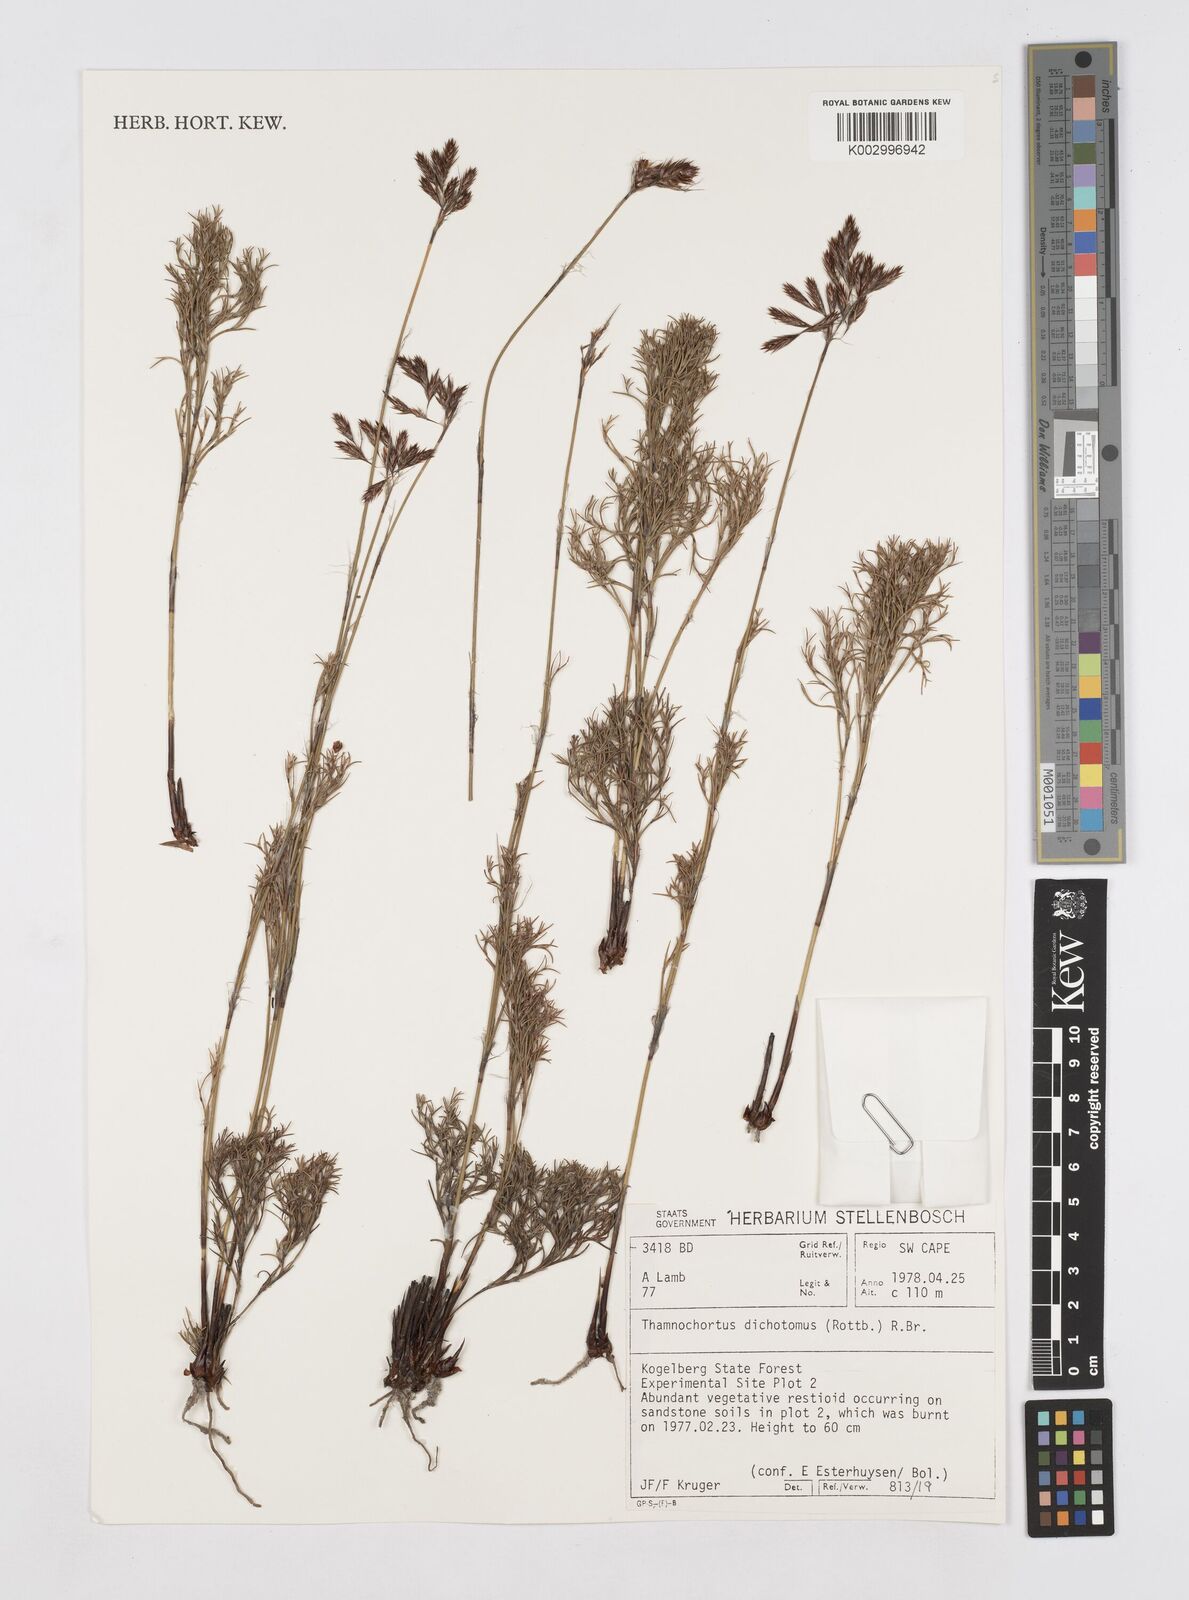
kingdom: Plantae
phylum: Tracheophyta
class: Liliopsida
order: Poales
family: Restionaceae
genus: Thamnochortus
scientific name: Thamnochortus lucens
